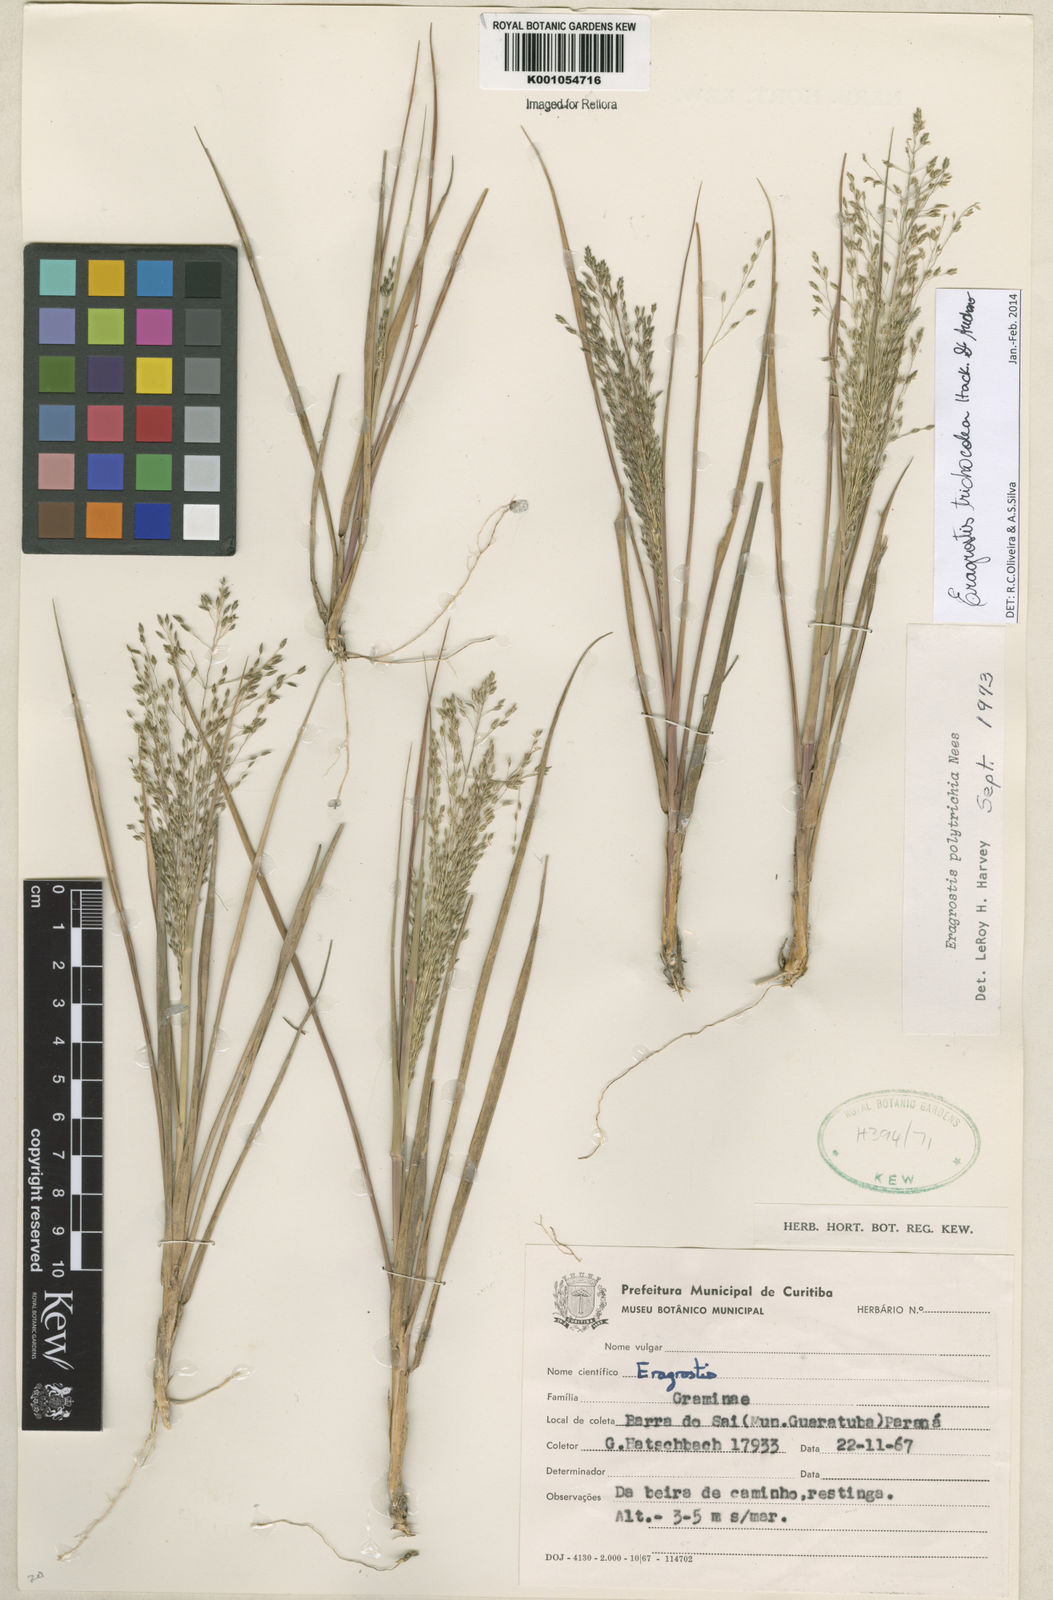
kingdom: Plantae
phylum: Tracheophyta
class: Liliopsida
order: Poales
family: Poaceae
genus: Eragrostis
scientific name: Eragrostis trichocolea
